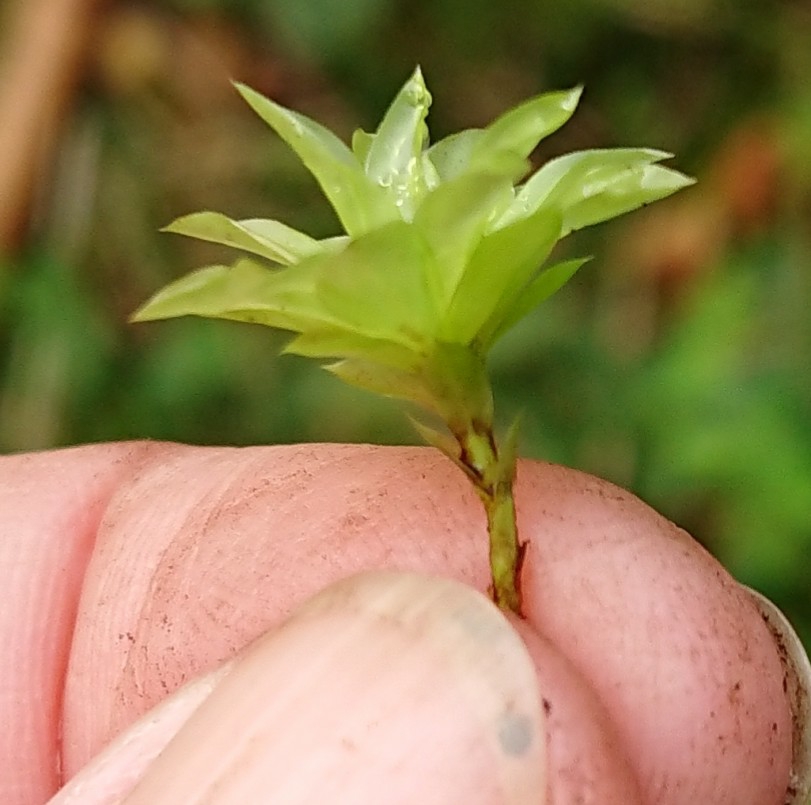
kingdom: Plantae
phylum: Bryophyta
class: Bryopsida
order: Bryales
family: Bryaceae
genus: Rhodobryum
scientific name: Rhodobryum roseum
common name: Stor rosetmos
